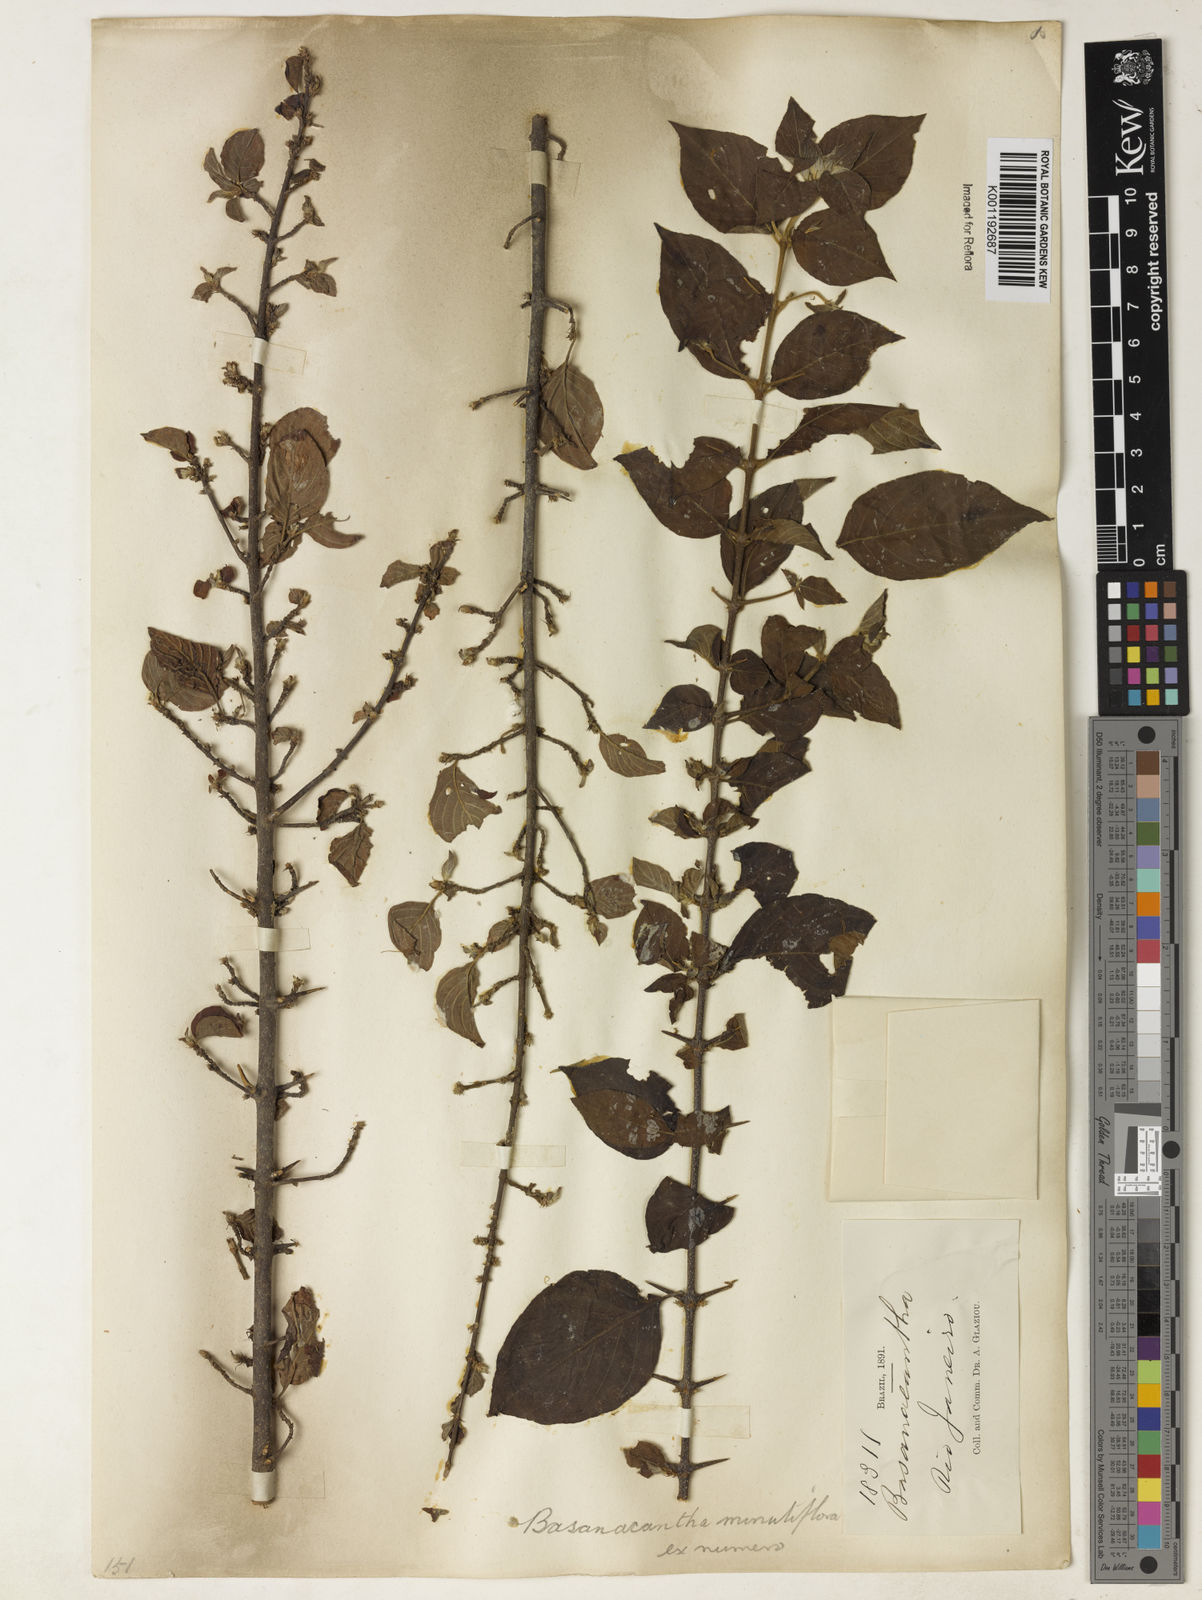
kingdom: Plantae
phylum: Tracheophyta
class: Magnoliopsida
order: Gentianales
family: Rubiaceae
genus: Randia
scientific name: Randia
